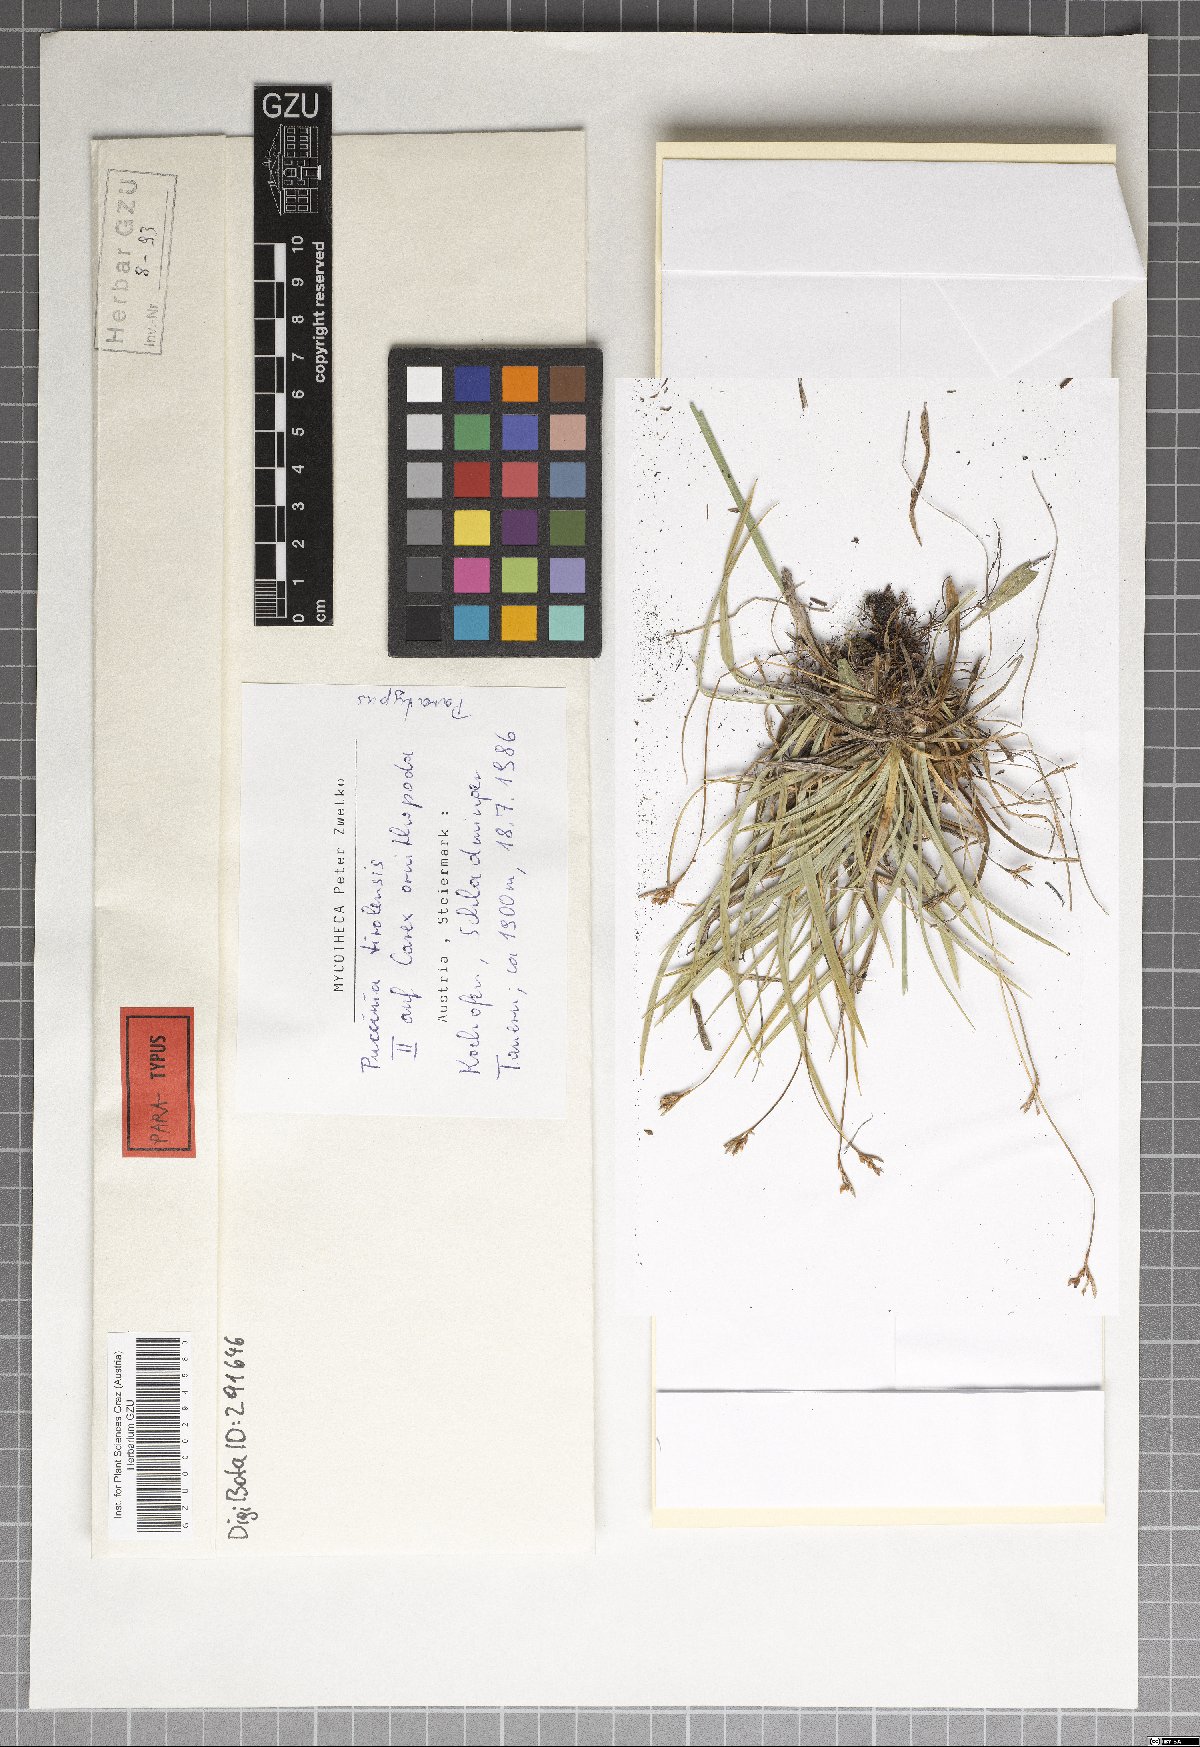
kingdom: Fungi
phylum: Basidiomycota
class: Pucciniomycetes
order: Pucciniales
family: Pucciniaceae
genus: Puccinia
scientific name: Puccinia tirolensis
